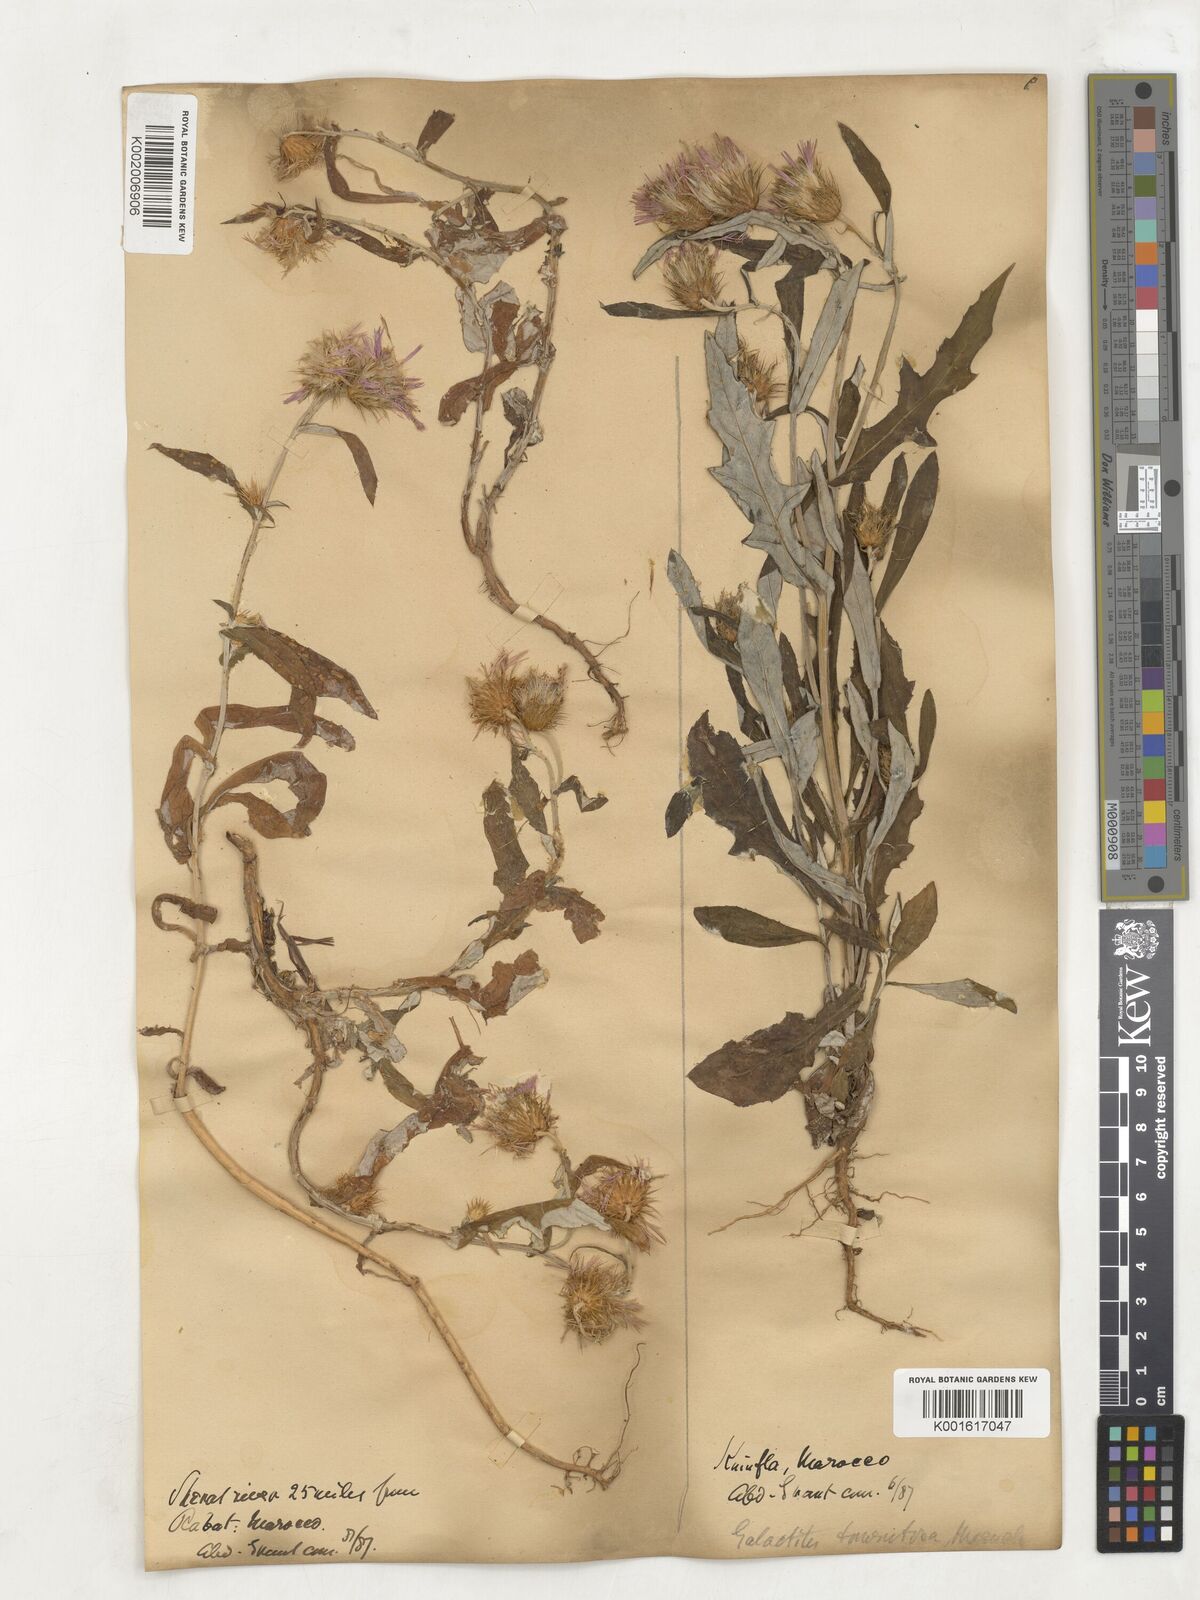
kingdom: Plantae
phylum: Tracheophyta
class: Magnoliopsida
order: Asterales
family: Asteraceae
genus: Galactites
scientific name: Galactites
